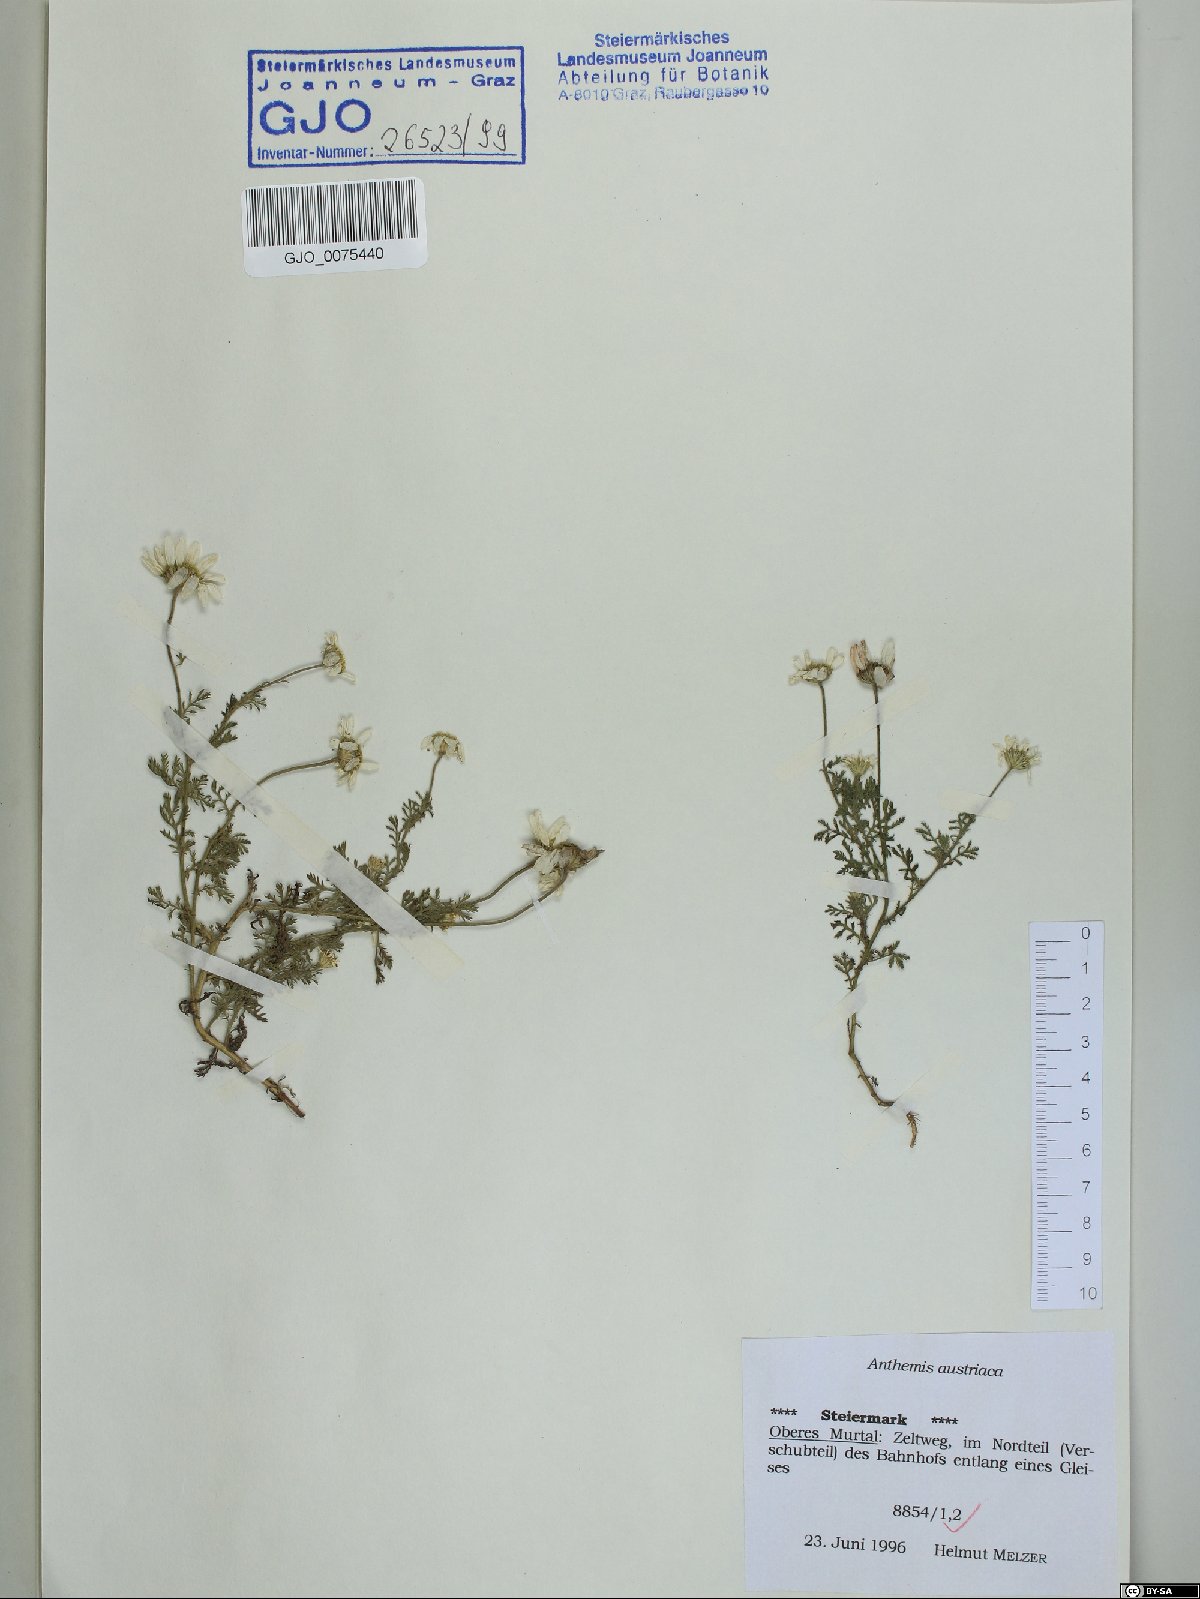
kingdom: Plantae
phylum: Tracheophyta
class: Magnoliopsida
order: Asterales
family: Asteraceae
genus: Cota
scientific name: Cota austriaca
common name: Austrian chamomile
